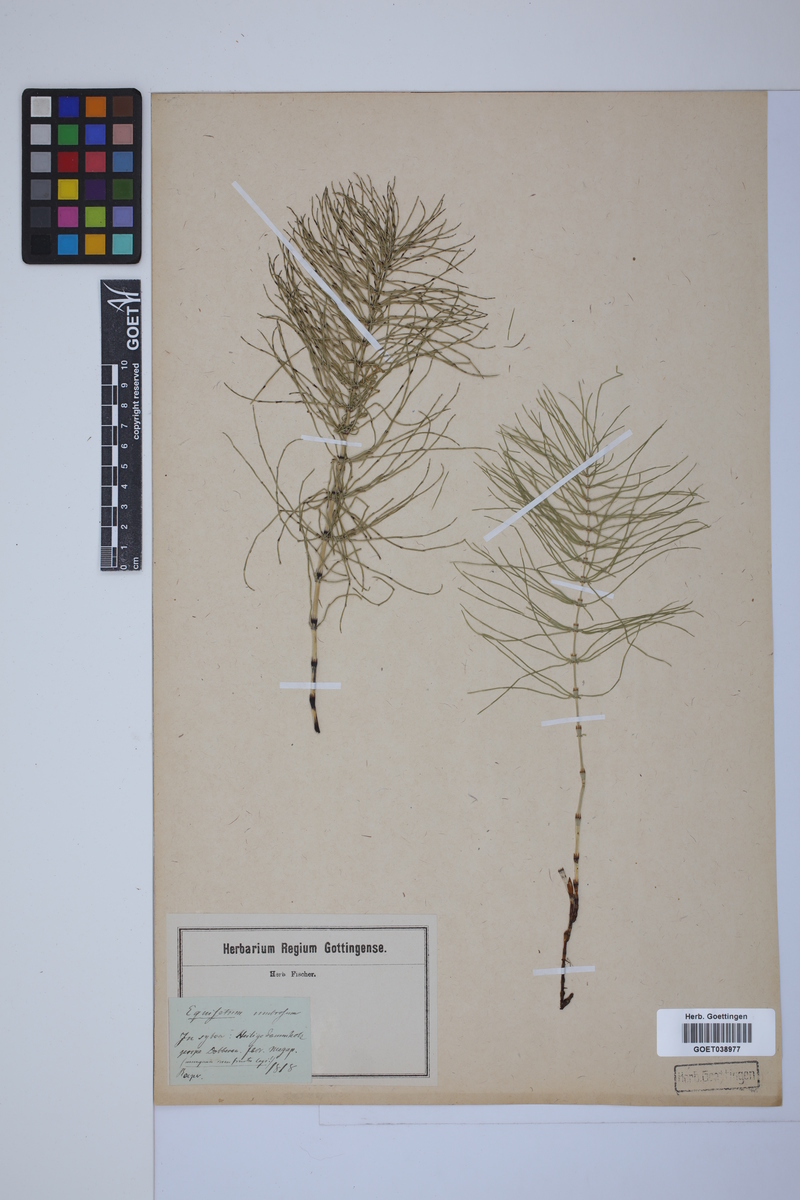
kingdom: Plantae
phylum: Tracheophyta
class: Polypodiopsida
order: Equisetales
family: Equisetaceae
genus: Equisetum
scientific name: Equisetum pratense
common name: Meadow horsetail
